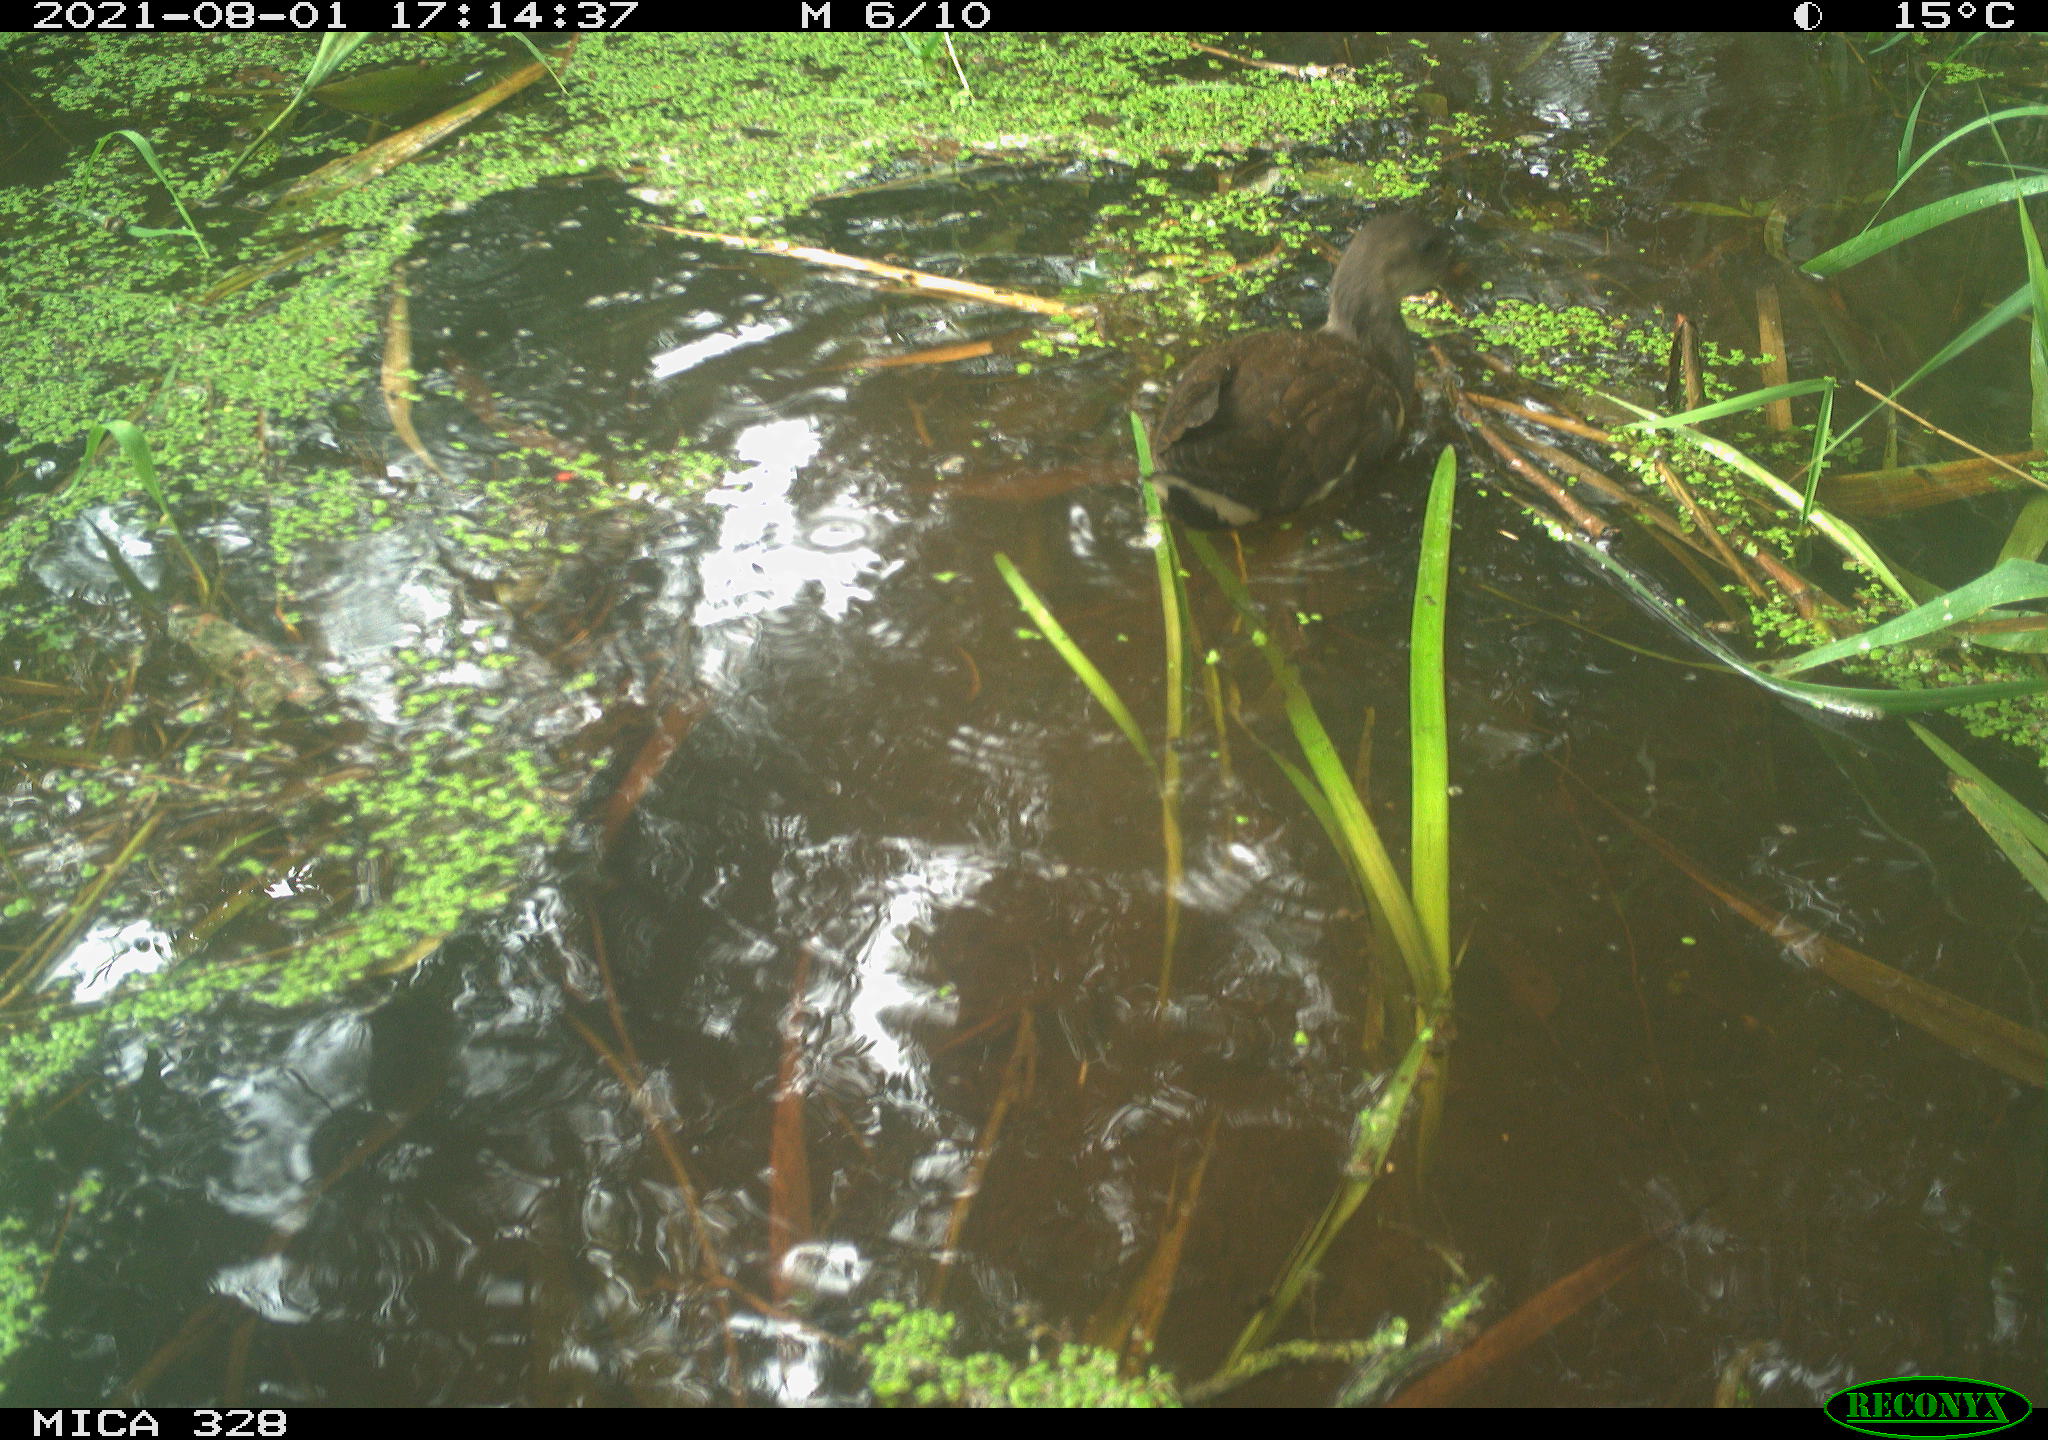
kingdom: Animalia
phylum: Chordata
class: Aves
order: Gruiformes
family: Rallidae
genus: Gallinula
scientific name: Gallinula chloropus
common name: Common moorhen
